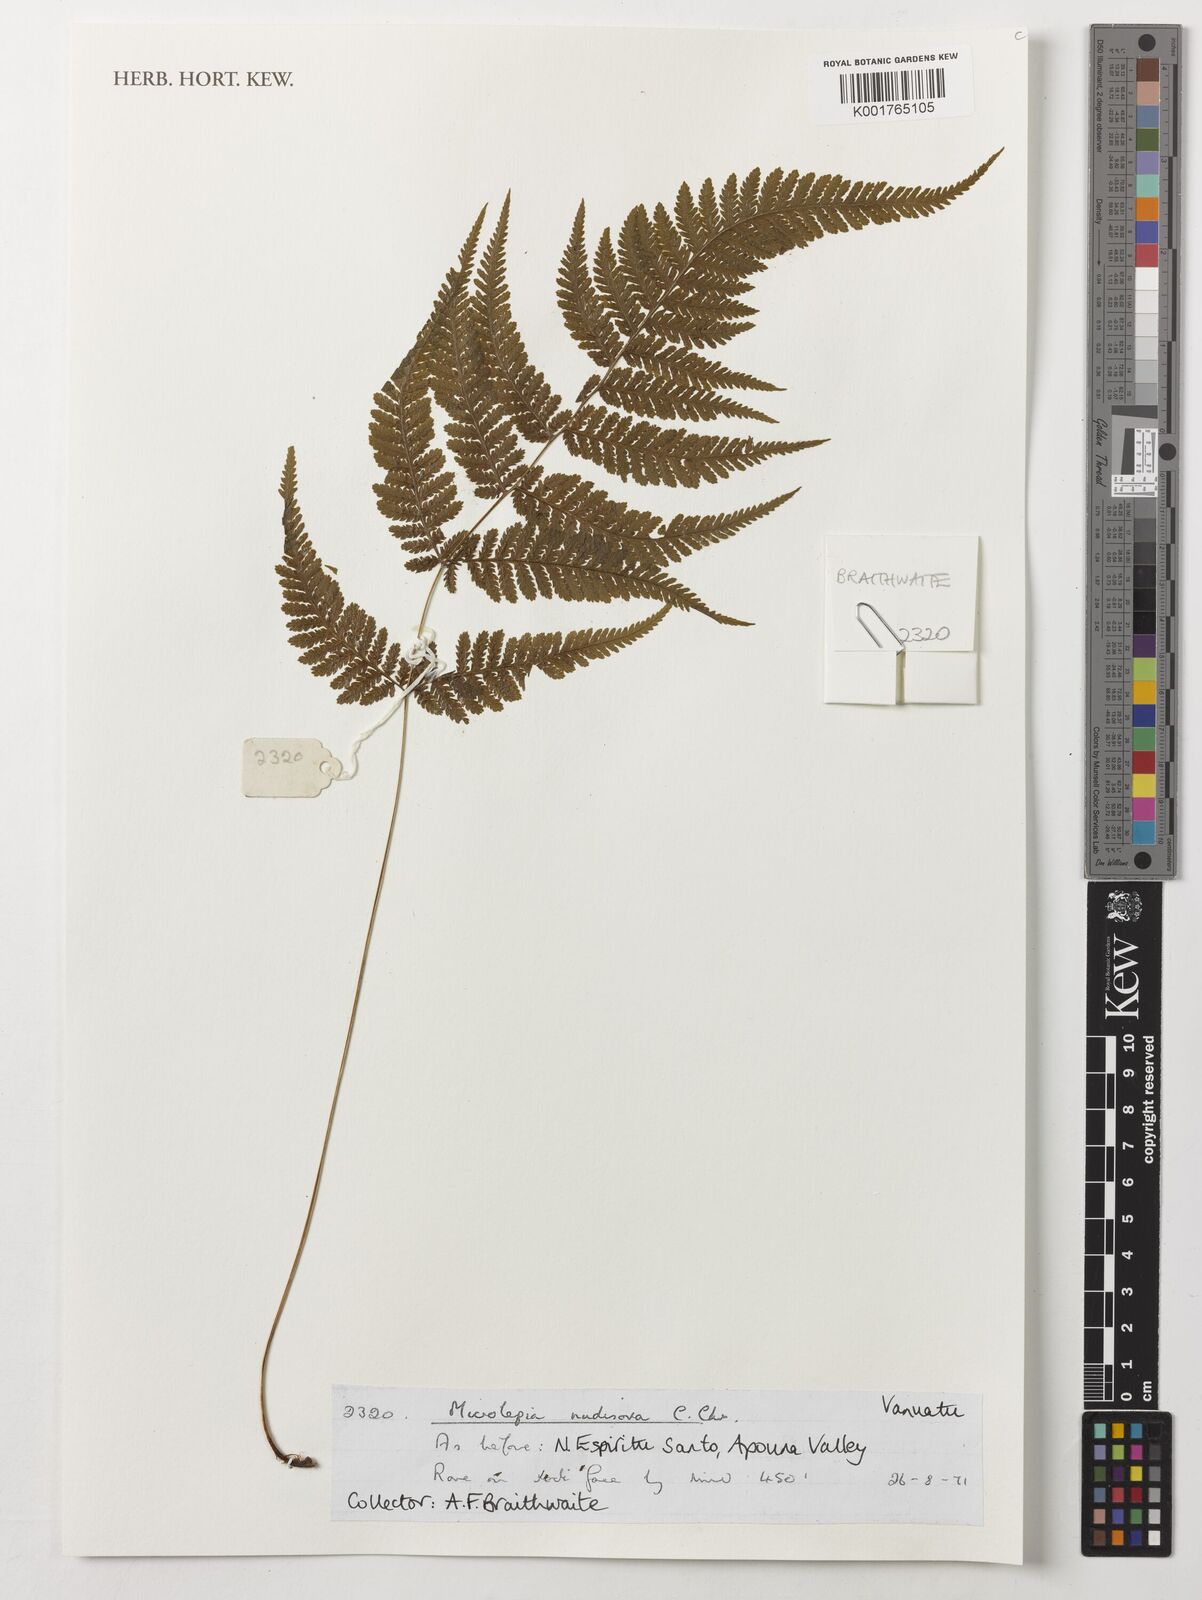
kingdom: Plantae
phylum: Tracheophyta
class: Polypodiopsida
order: Polypodiales
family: Dennstaedtiaceae
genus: Microlepia
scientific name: Microlepia nudisora
